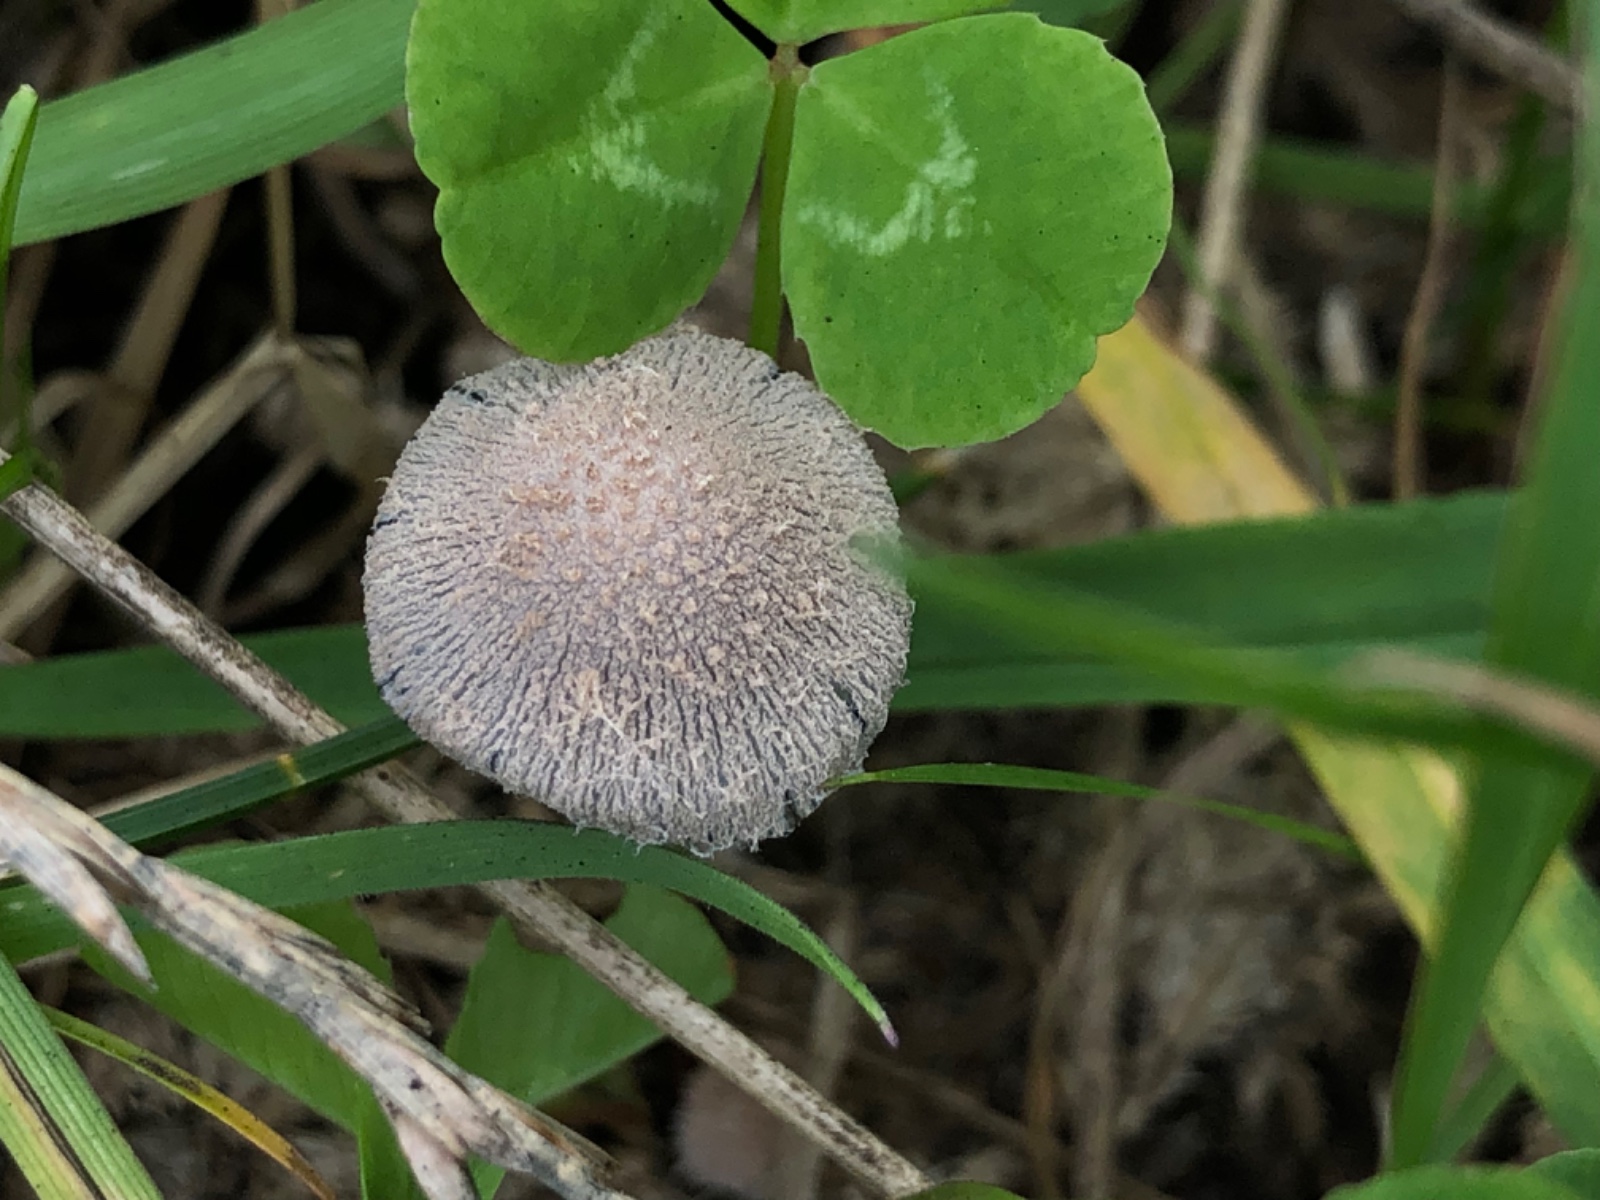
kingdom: Fungi
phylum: Basidiomycota
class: Agaricomycetes
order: Agaricales
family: Psathyrellaceae
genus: Coprinopsis
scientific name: Coprinopsis pseudonivea
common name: pudret blækhat
